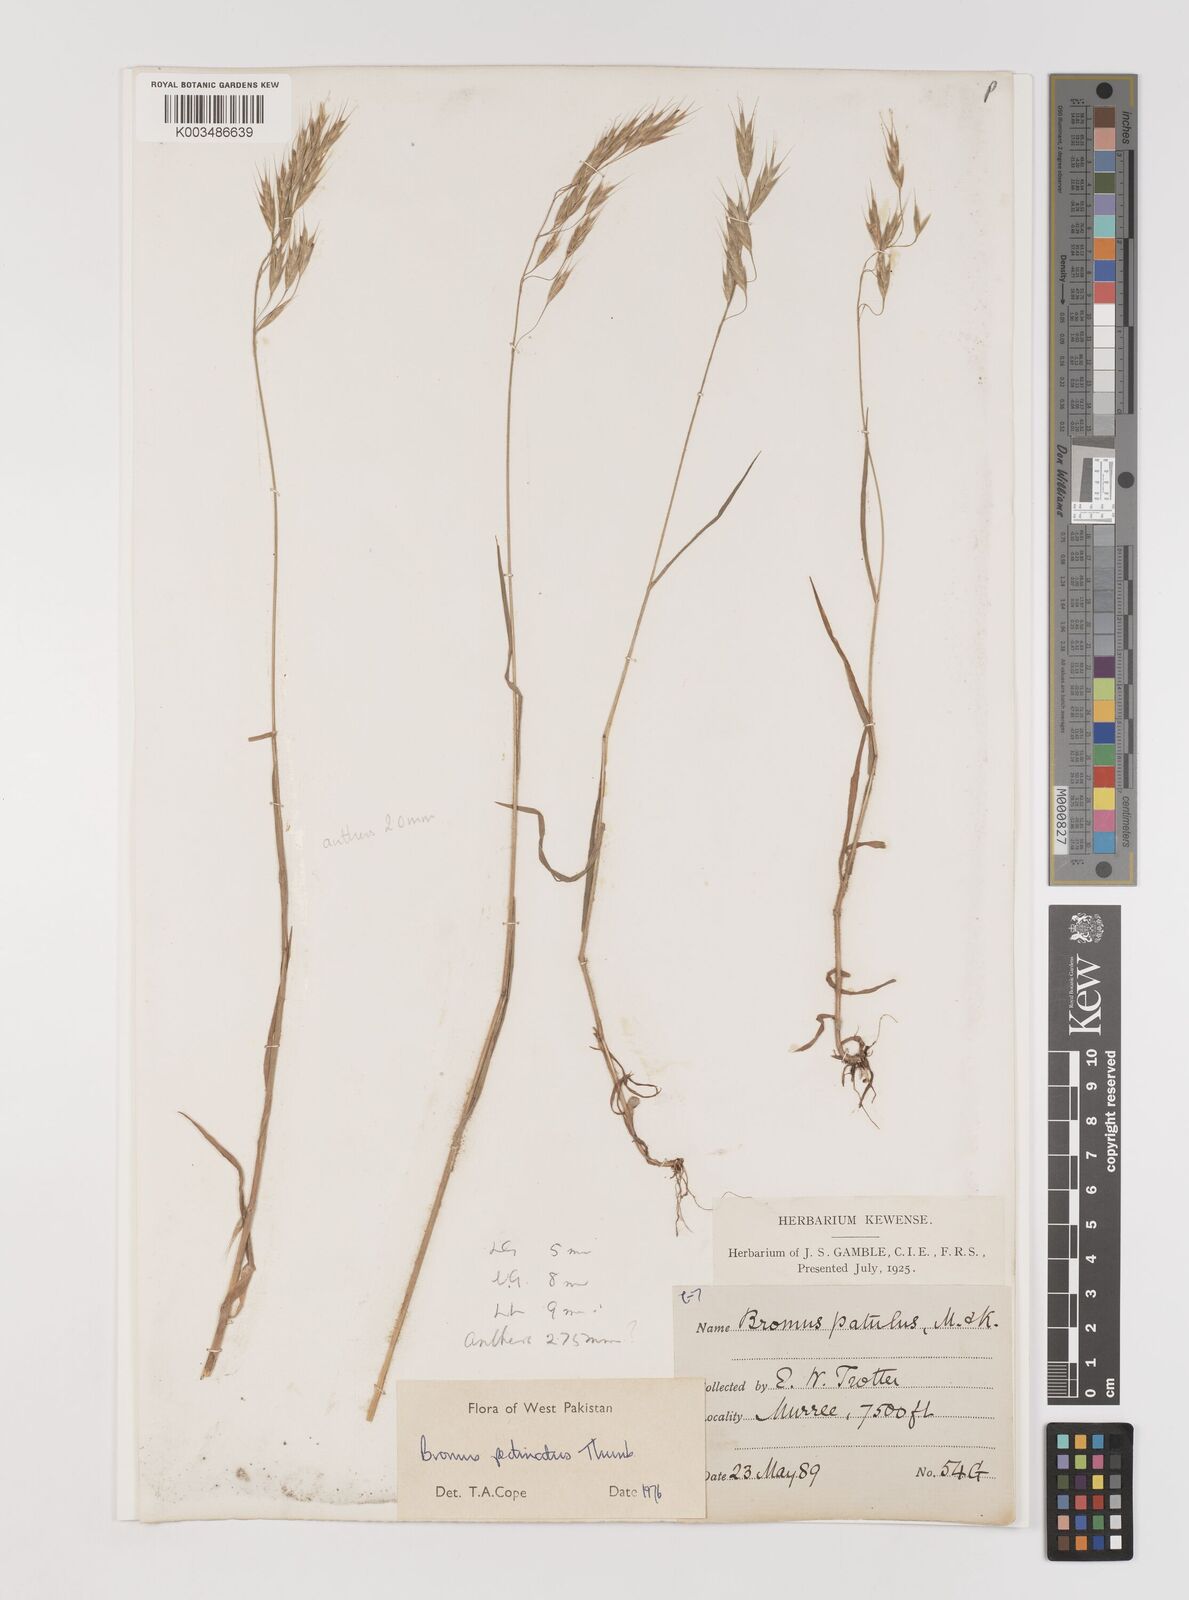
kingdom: Plantae
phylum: Tracheophyta
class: Liliopsida
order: Poales
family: Poaceae
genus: Bromus
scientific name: Bromus pectinatus
